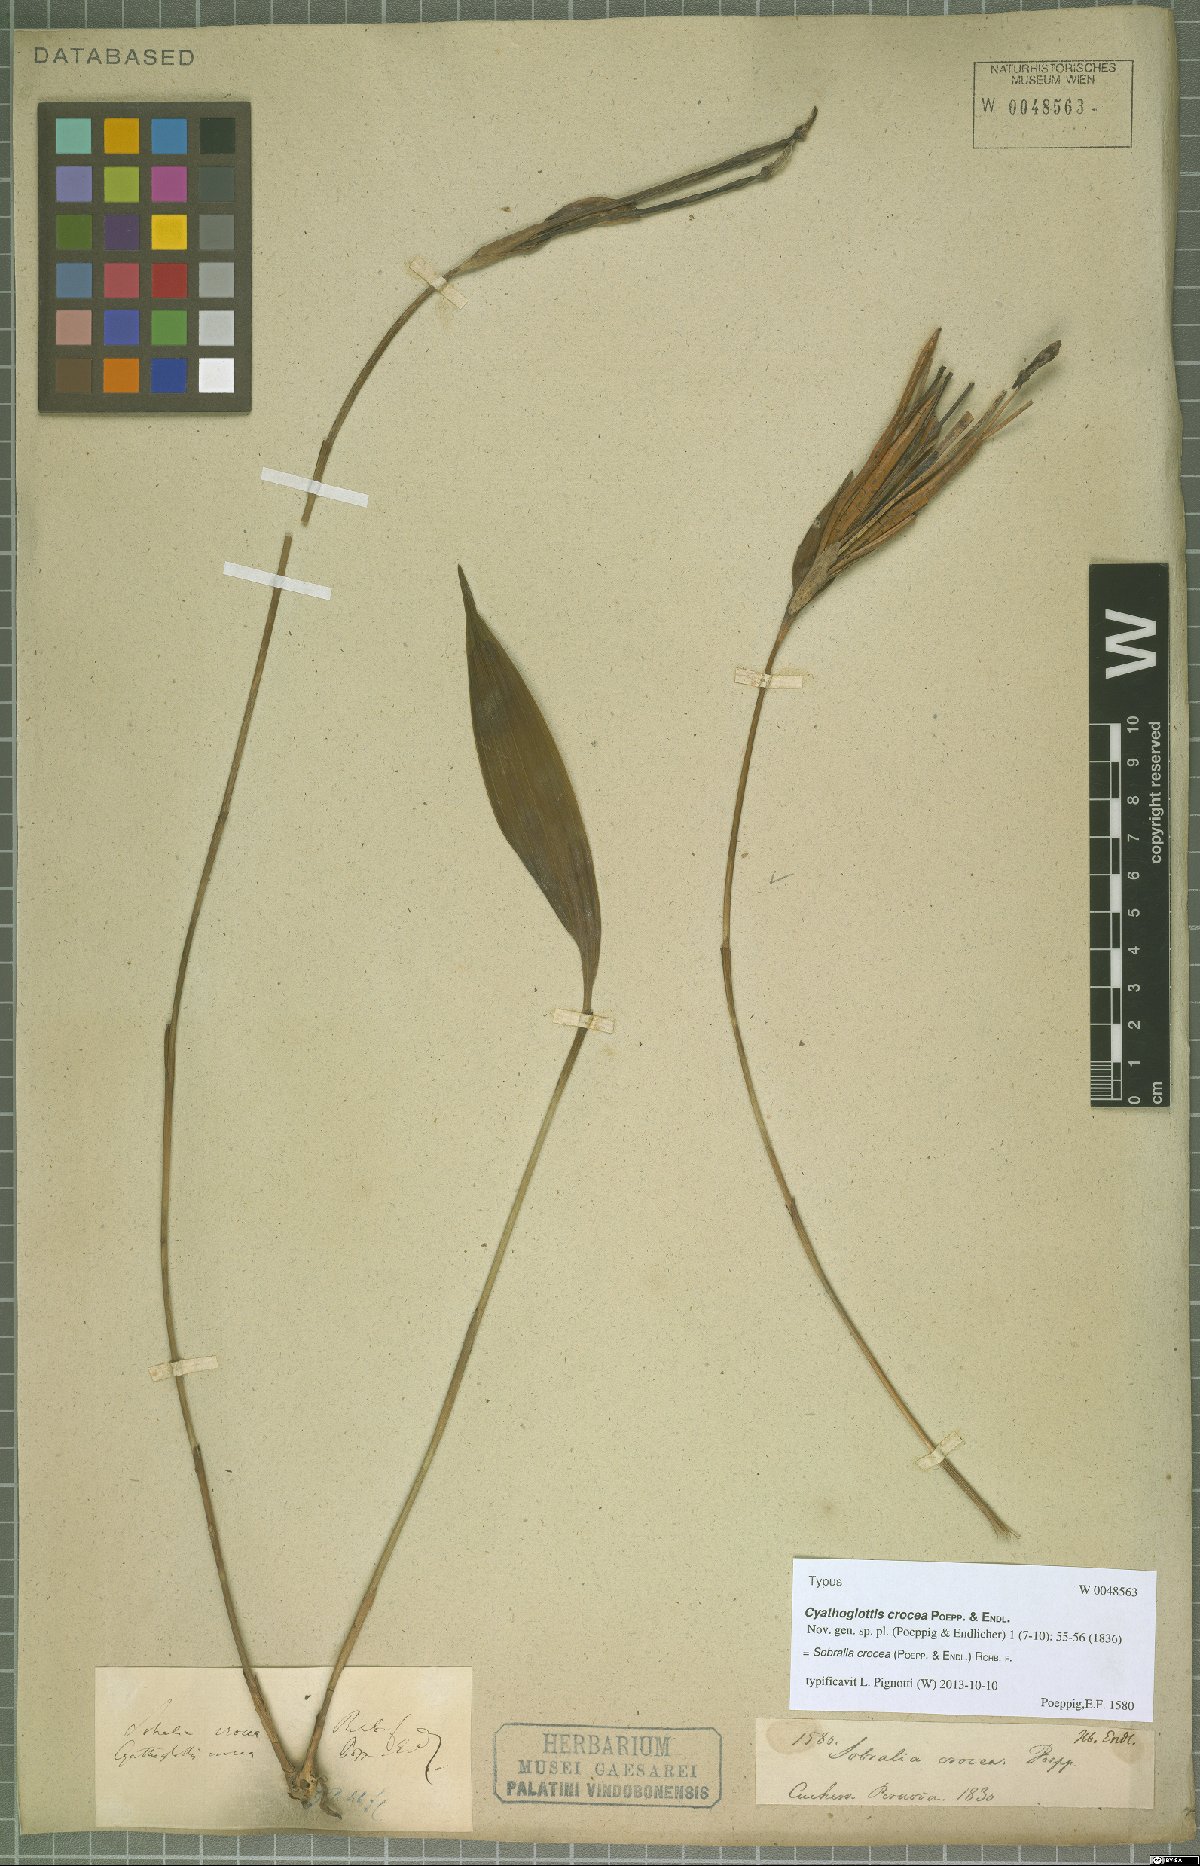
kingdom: Plantae
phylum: Tracheophyta
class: Liliopsida
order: Asparagales
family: Orchidaceae
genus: Sobralia
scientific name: Sobralia crocea
